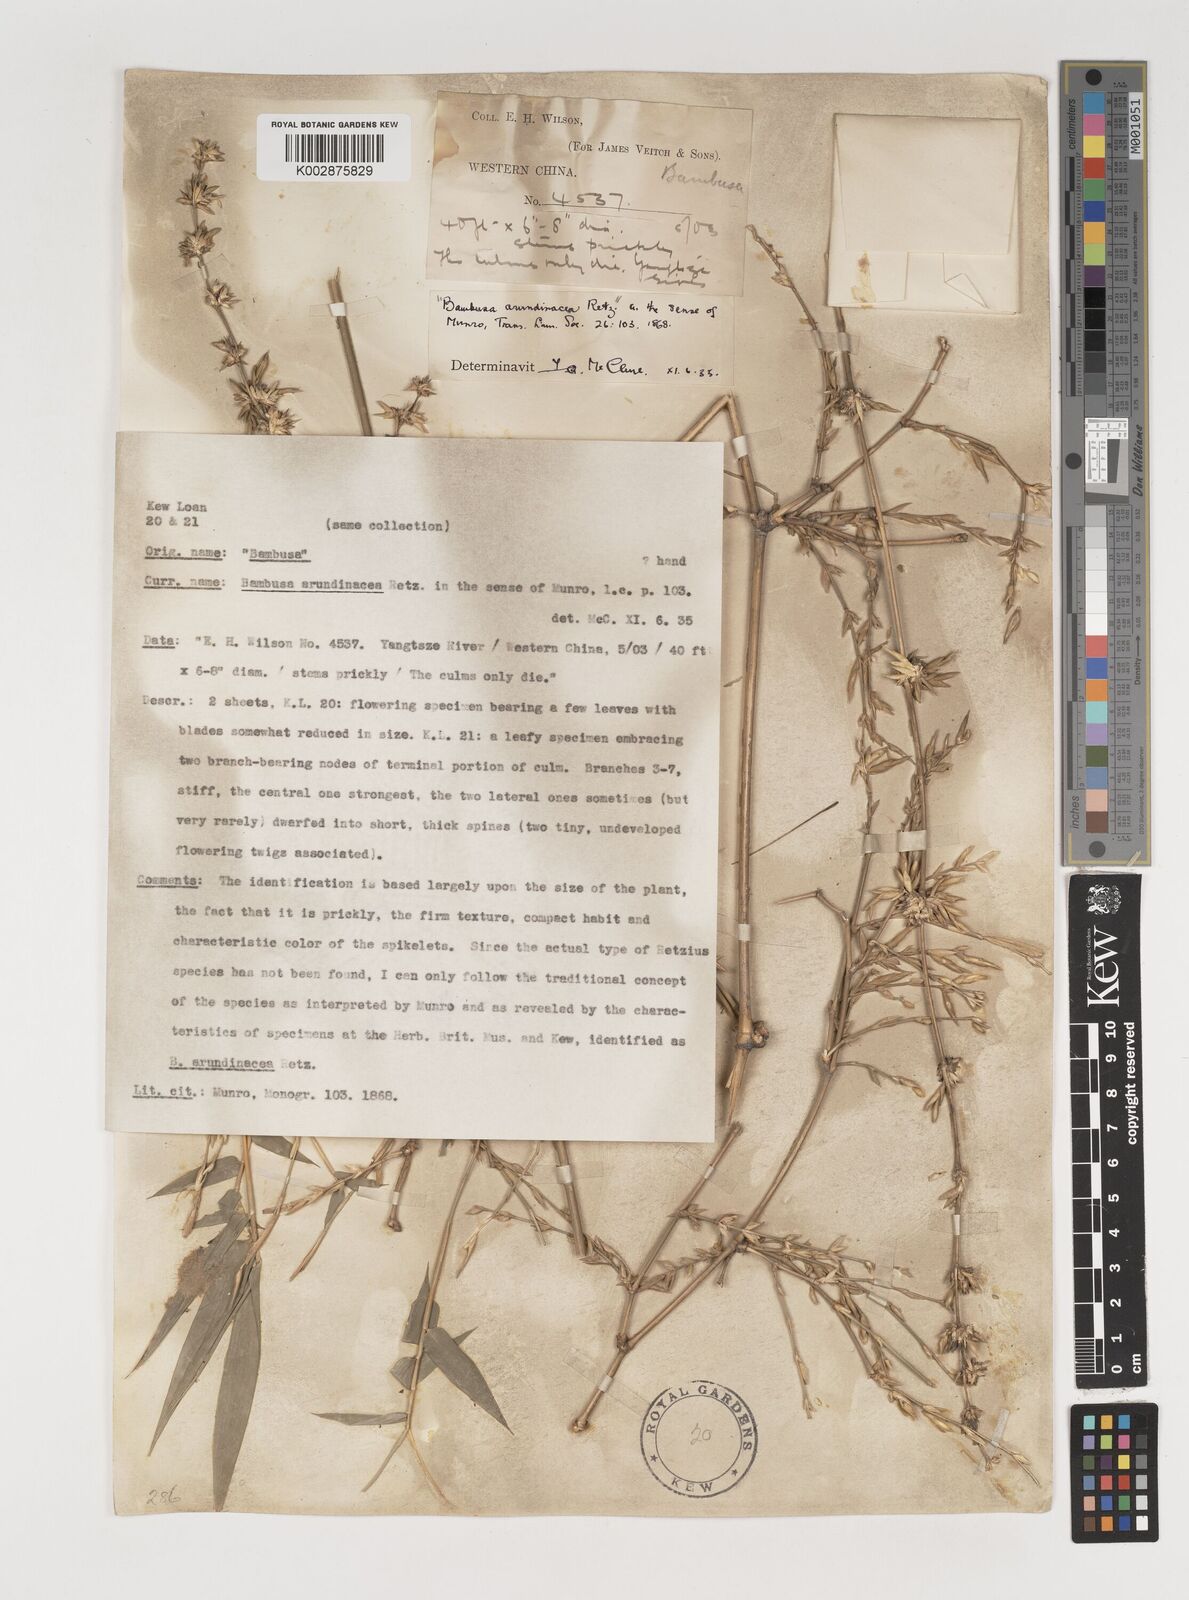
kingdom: Plantae
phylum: Tracheophyta
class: Liliopsida
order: Poales
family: Poaceae
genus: Bambusa
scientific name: Bambusa bambos
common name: Indian thorny bamboo
